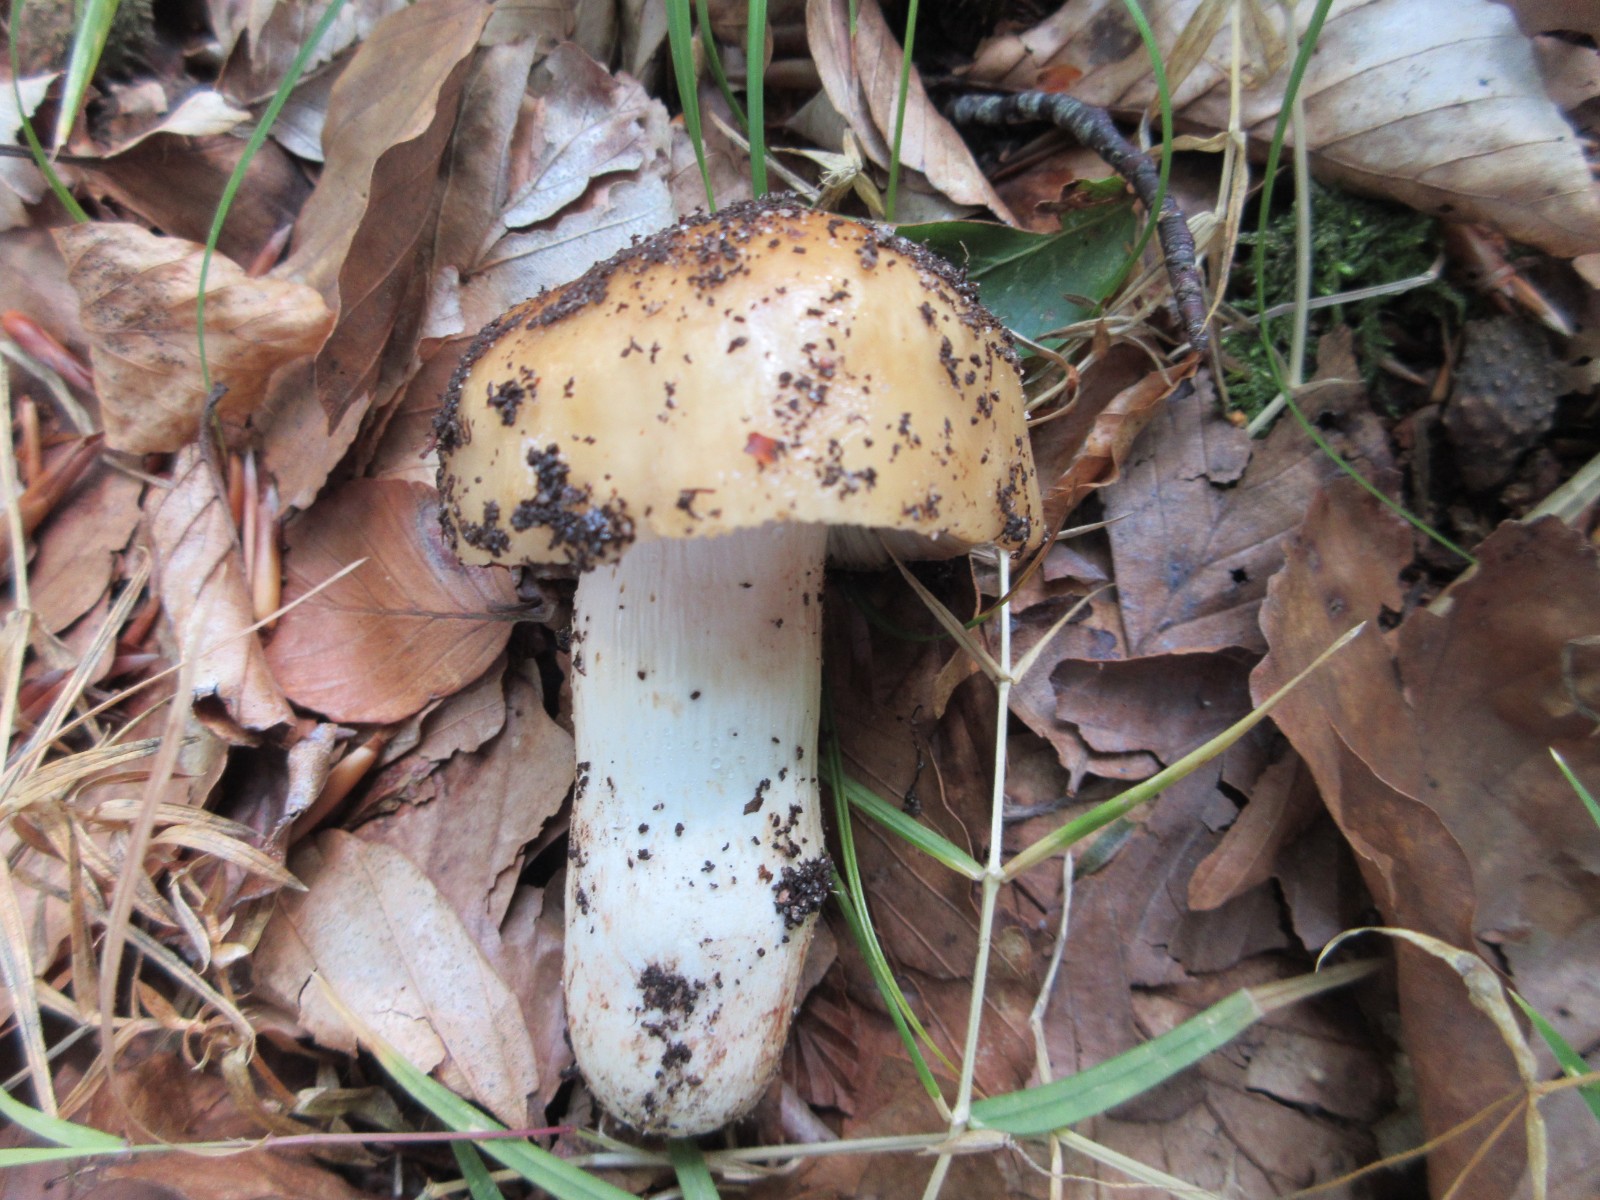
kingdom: Fungi
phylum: Basidiomycota
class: Agaricomycetes
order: Russulales
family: Russulaceae
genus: Russula
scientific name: Russula grata
